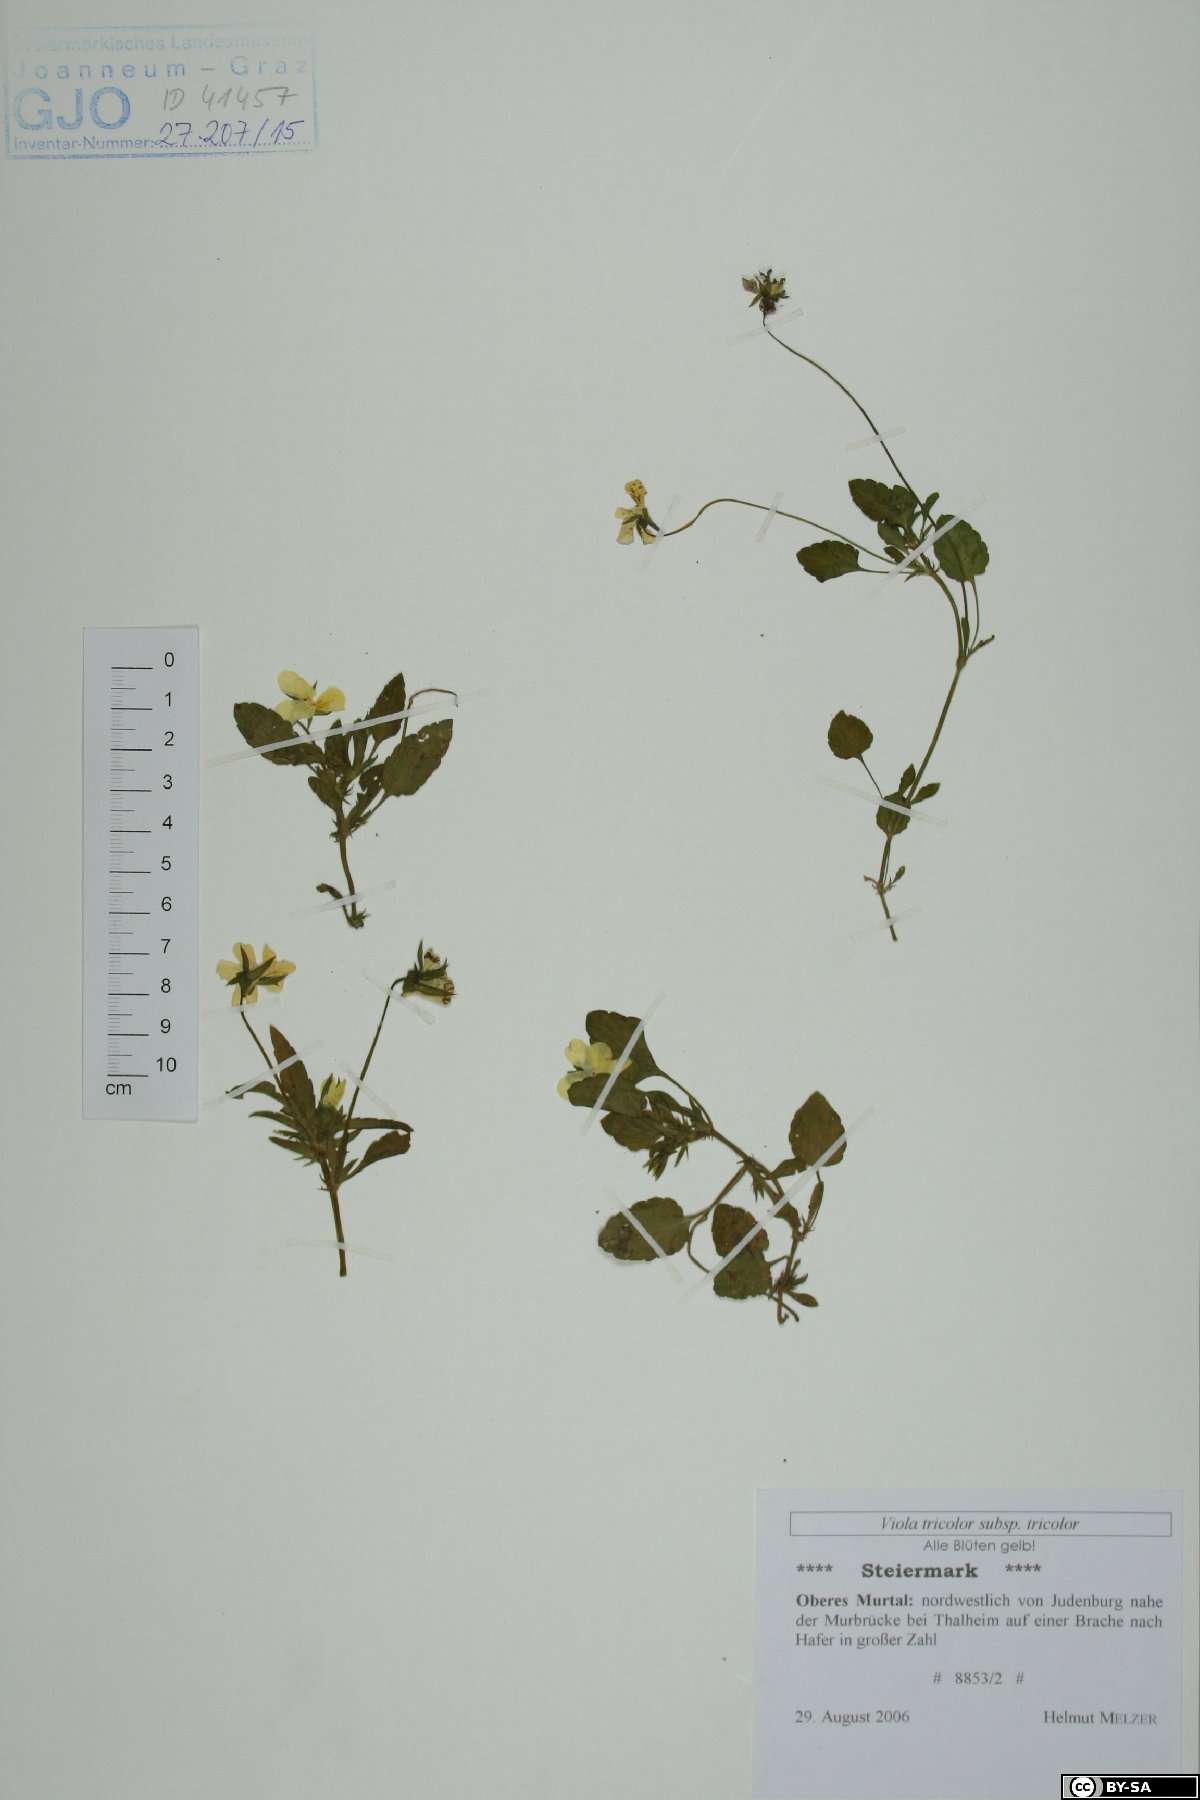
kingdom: Plantae
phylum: Tracheophyta
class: Magnoliopsida
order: Malpighiales
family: Violaceae
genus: Viola
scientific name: Viola tricolor
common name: Pansy
